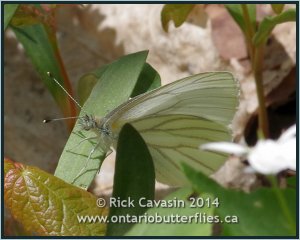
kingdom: Animalia
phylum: Arthropoda
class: Insecta
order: Lepidoptera
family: Pieridae
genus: Pieris
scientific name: Pieris oleracea
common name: Mustard White
